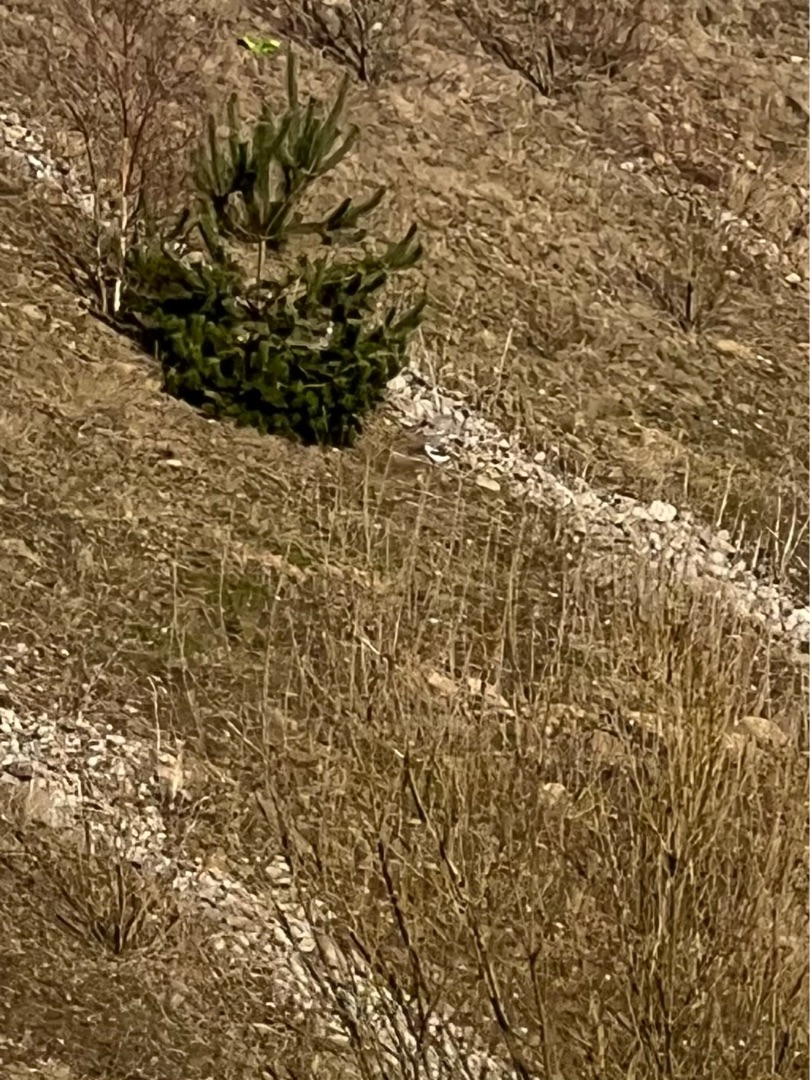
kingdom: Animalia
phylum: Chordata
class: Aves
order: Passeriformes
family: Laniidae
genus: Lanius
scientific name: Lanius excubitor
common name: Stor tornskade
